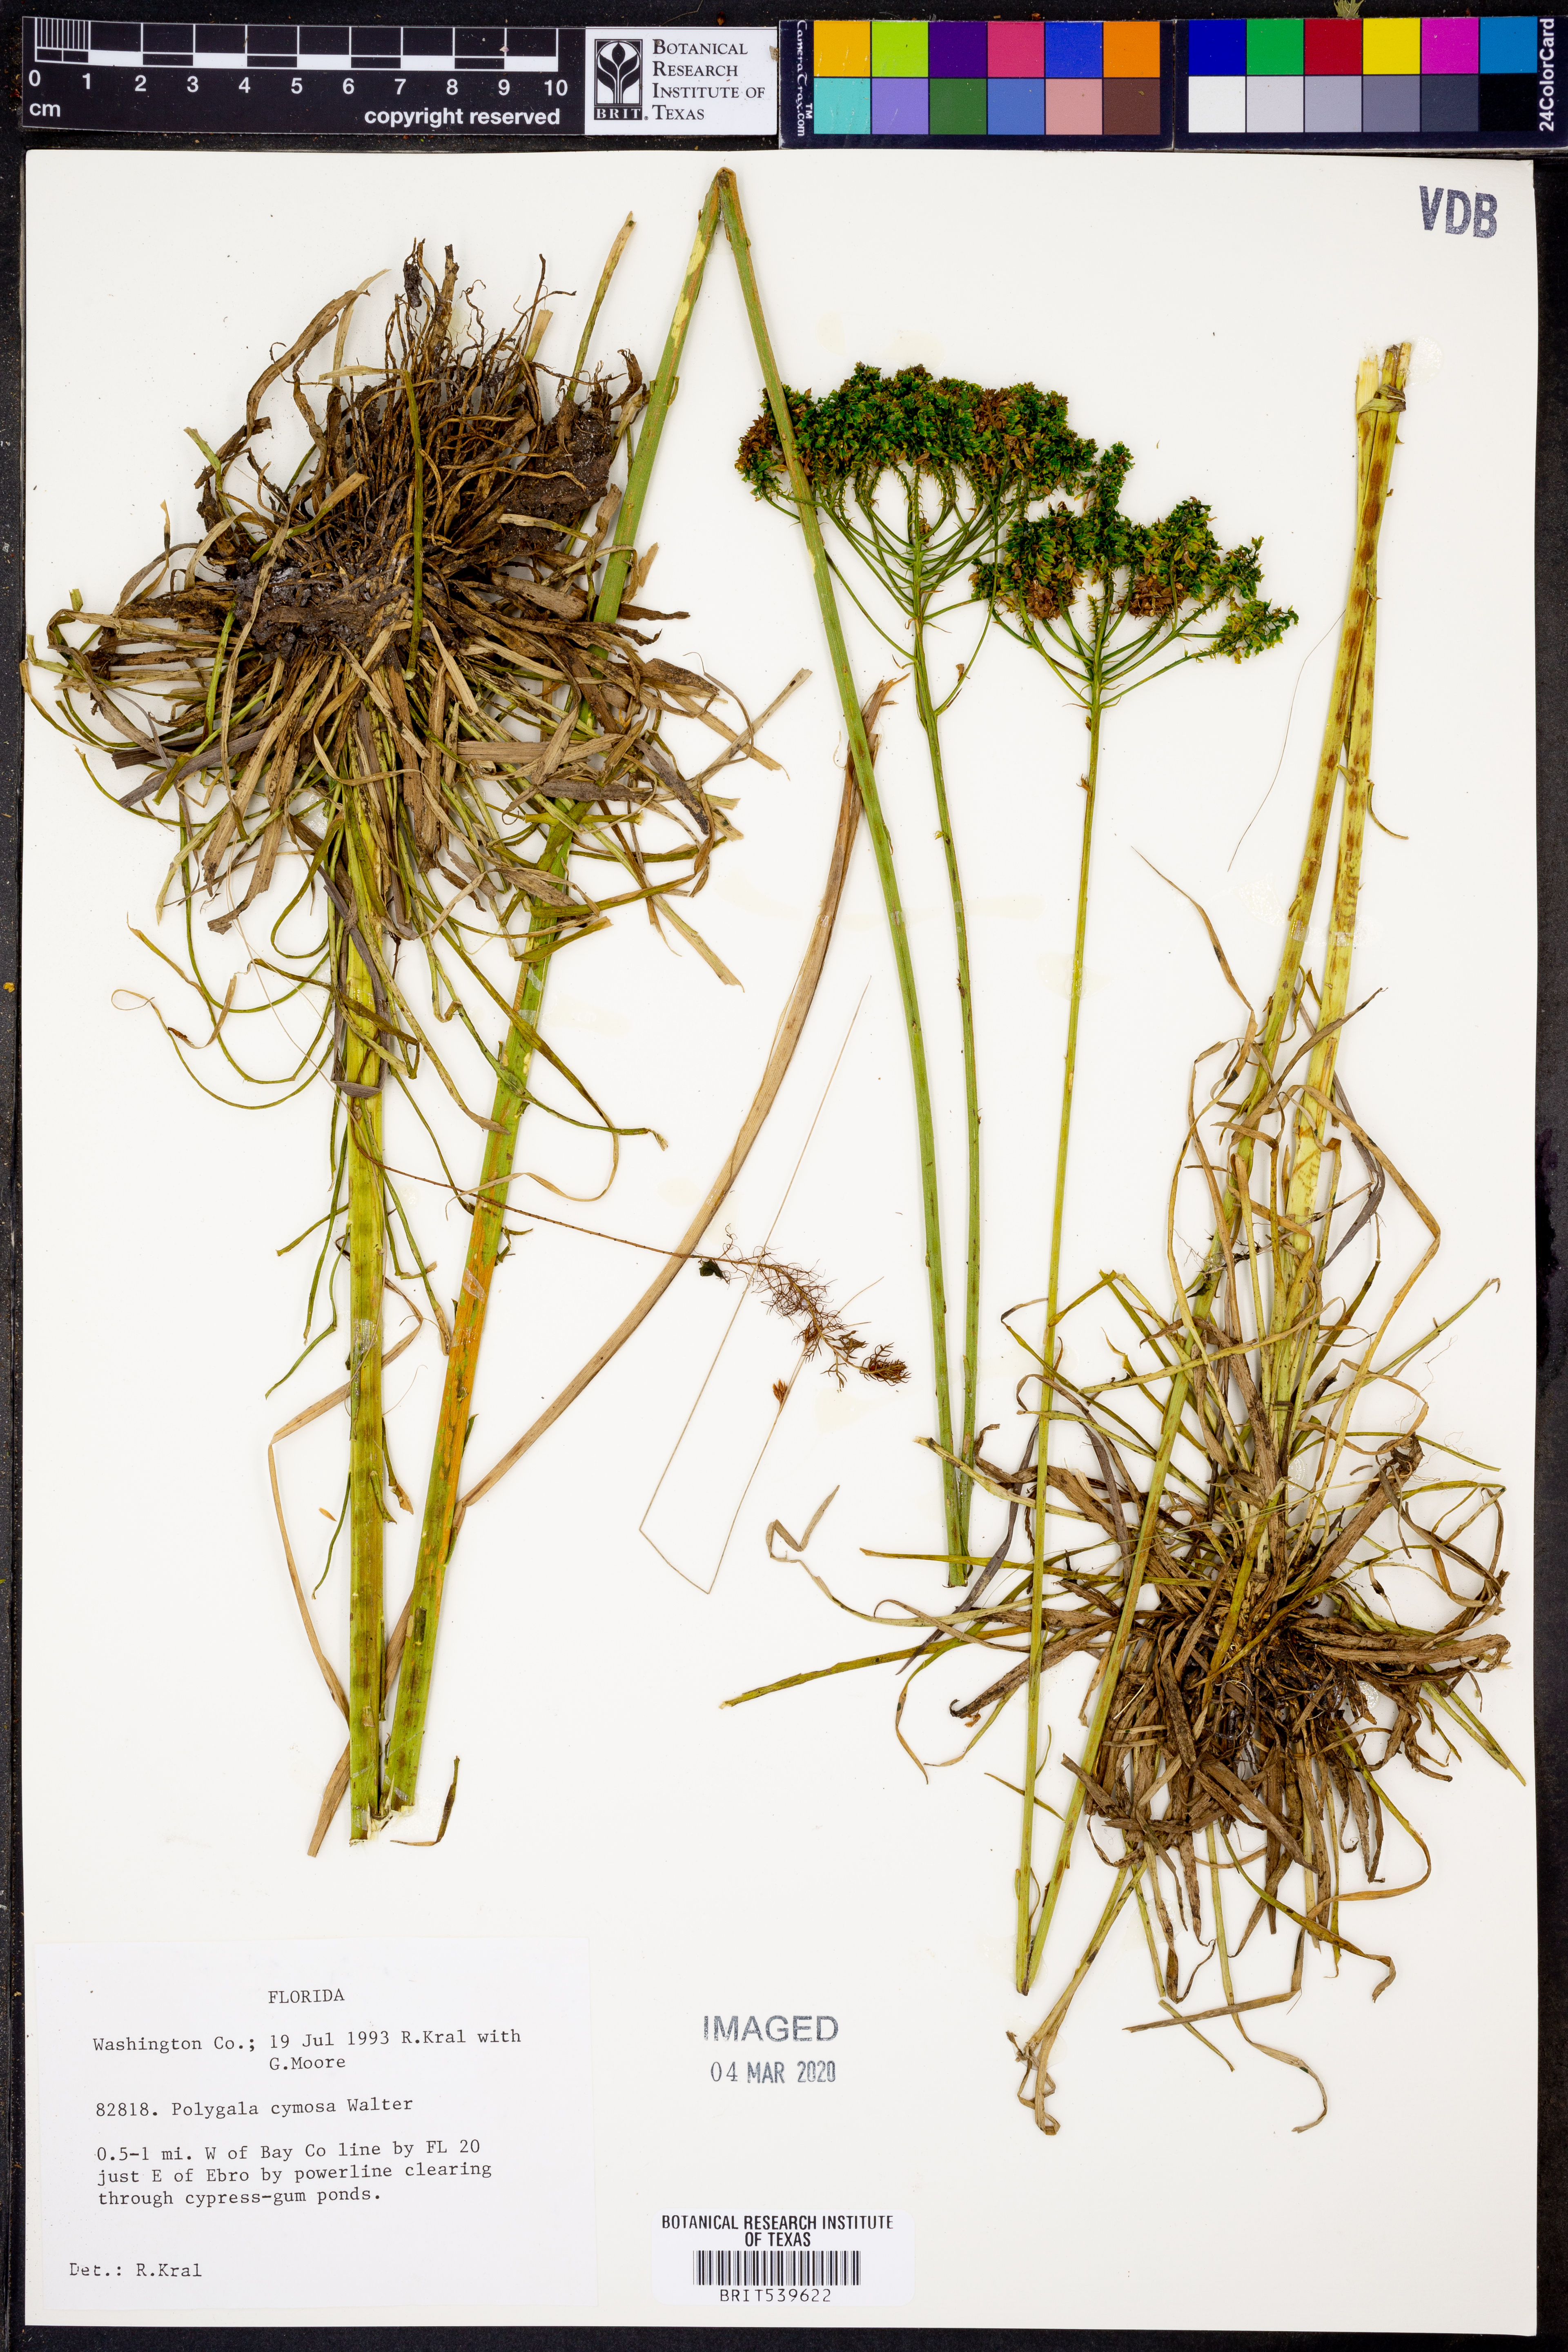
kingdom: Plantae
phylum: Tracheophyta
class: Magnoliopsida
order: Fabales
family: Polygalaceae
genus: Polygala
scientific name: Polygala cymosa
